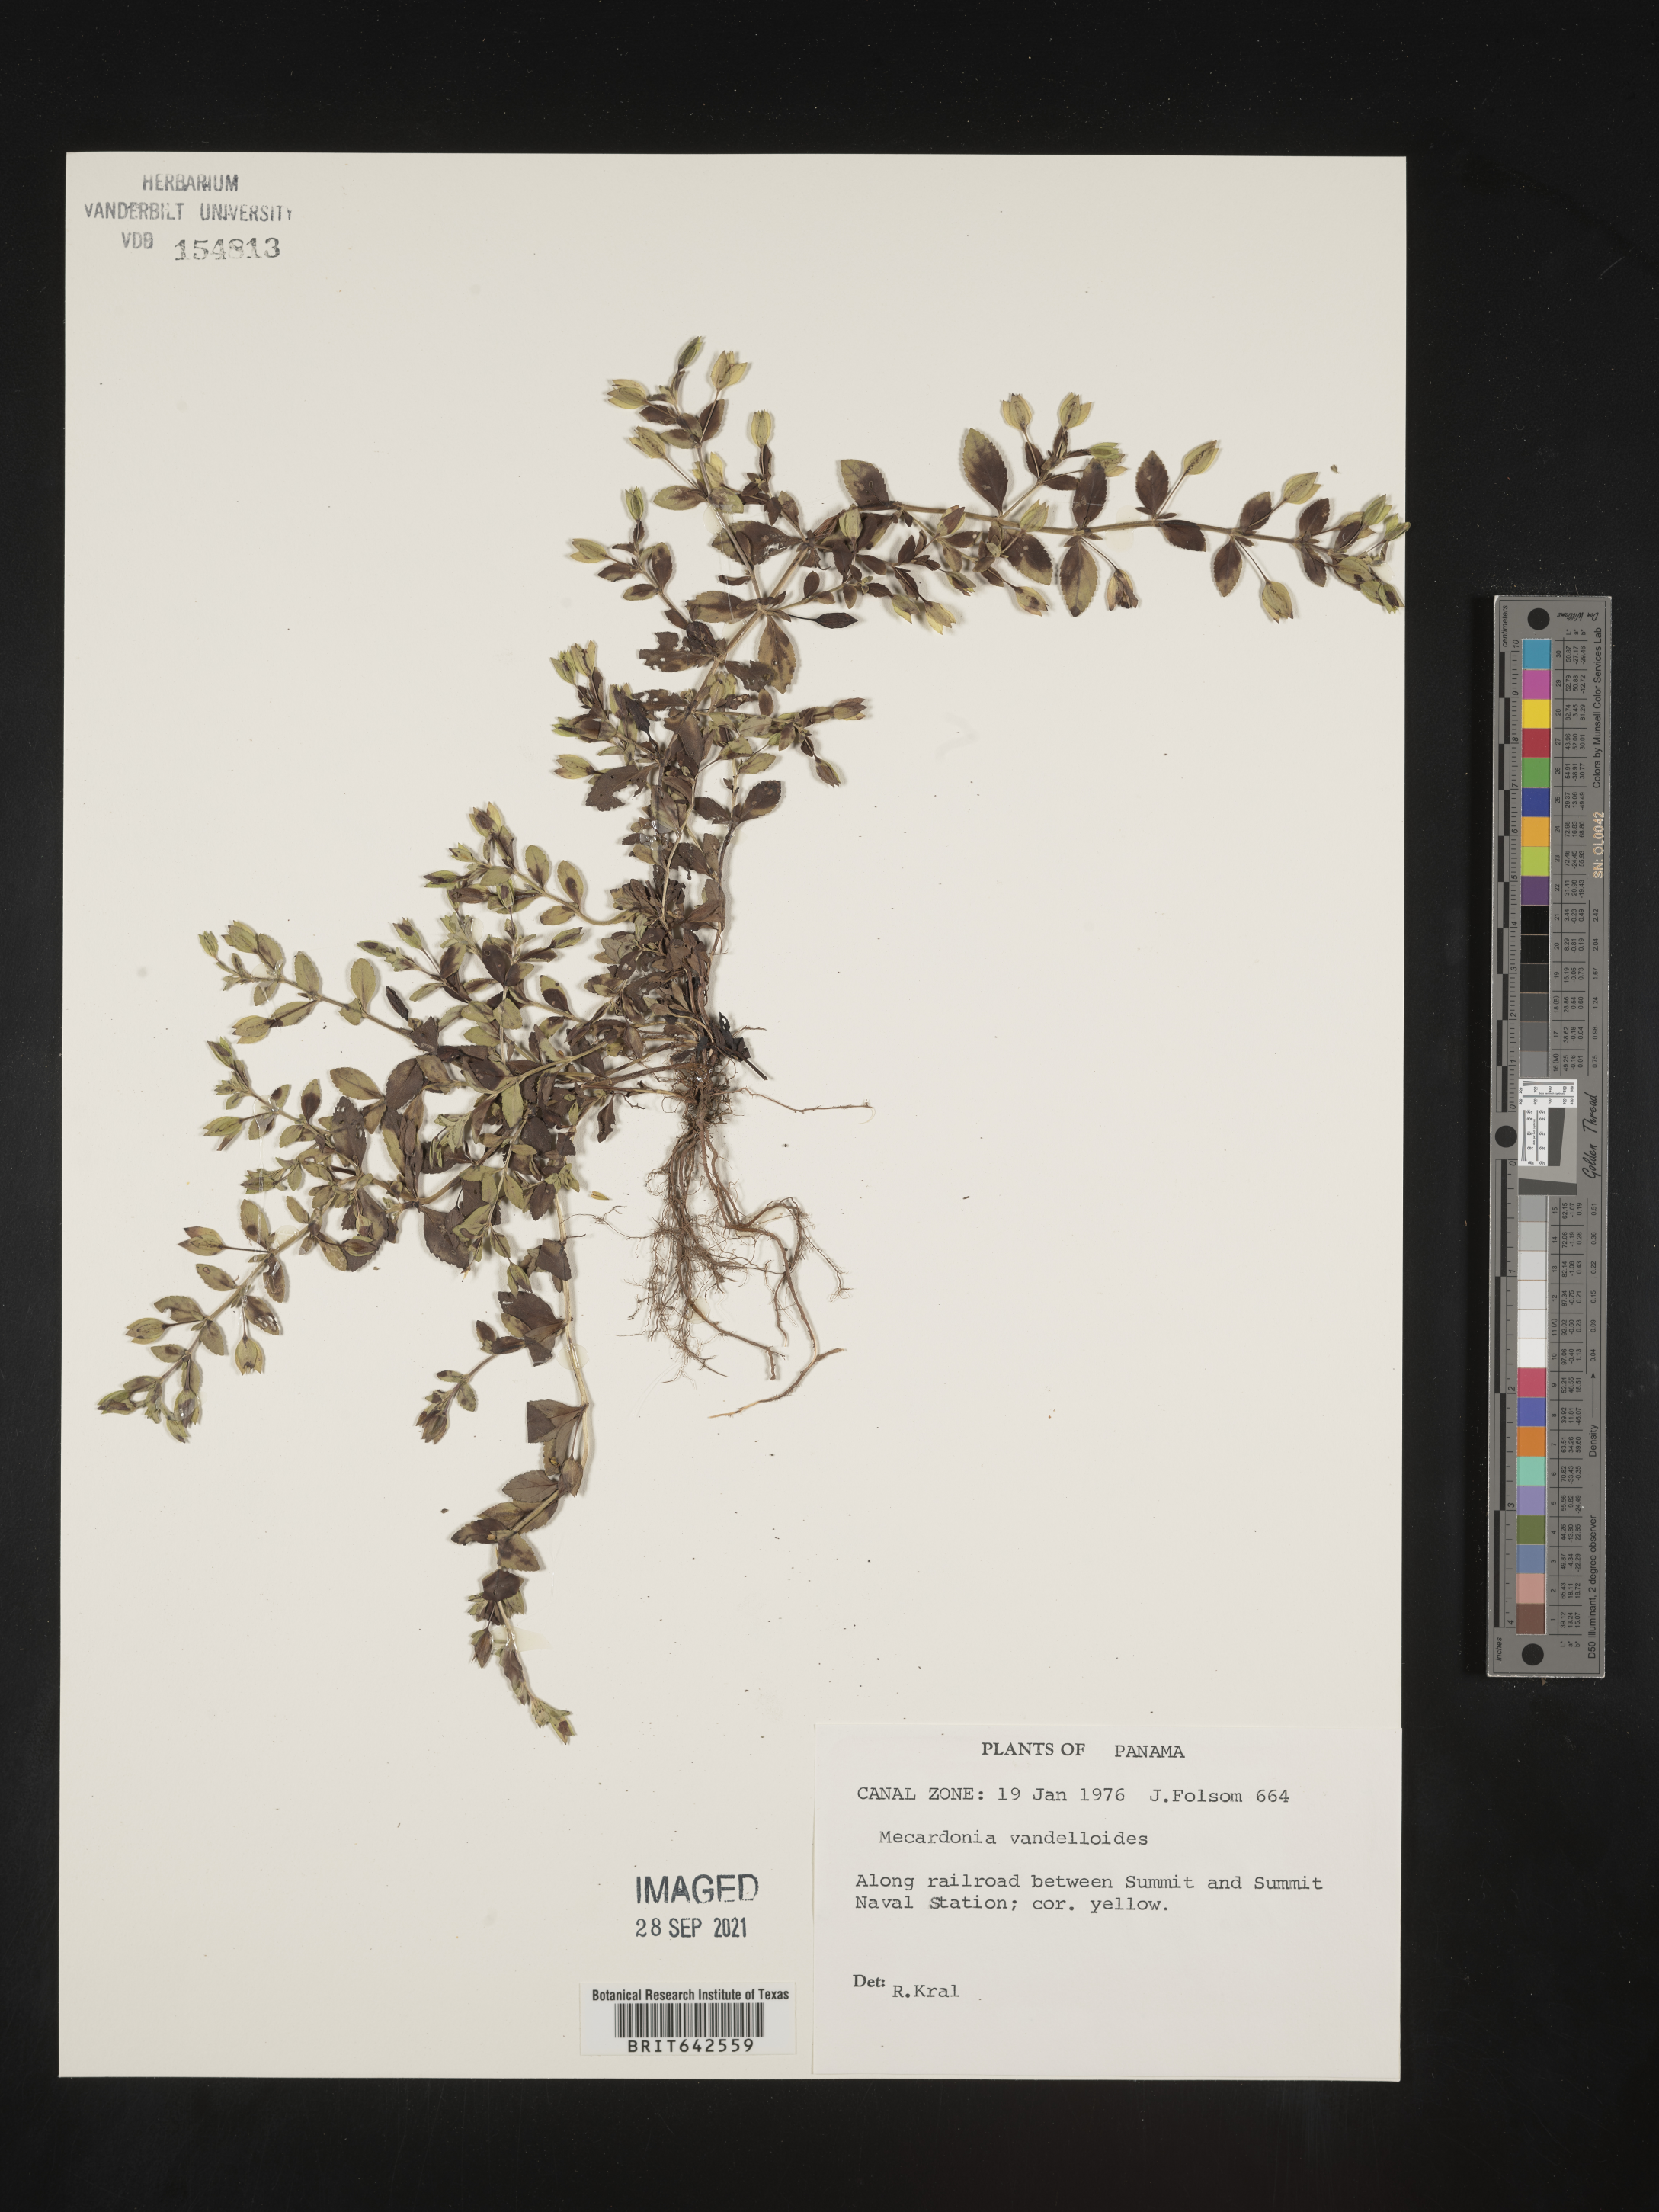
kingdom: Plantae
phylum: Tracheophyta
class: Magnoliopsida
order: Lamiales
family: Plantaginaceae
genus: Mecardonia
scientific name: Mecardonia
